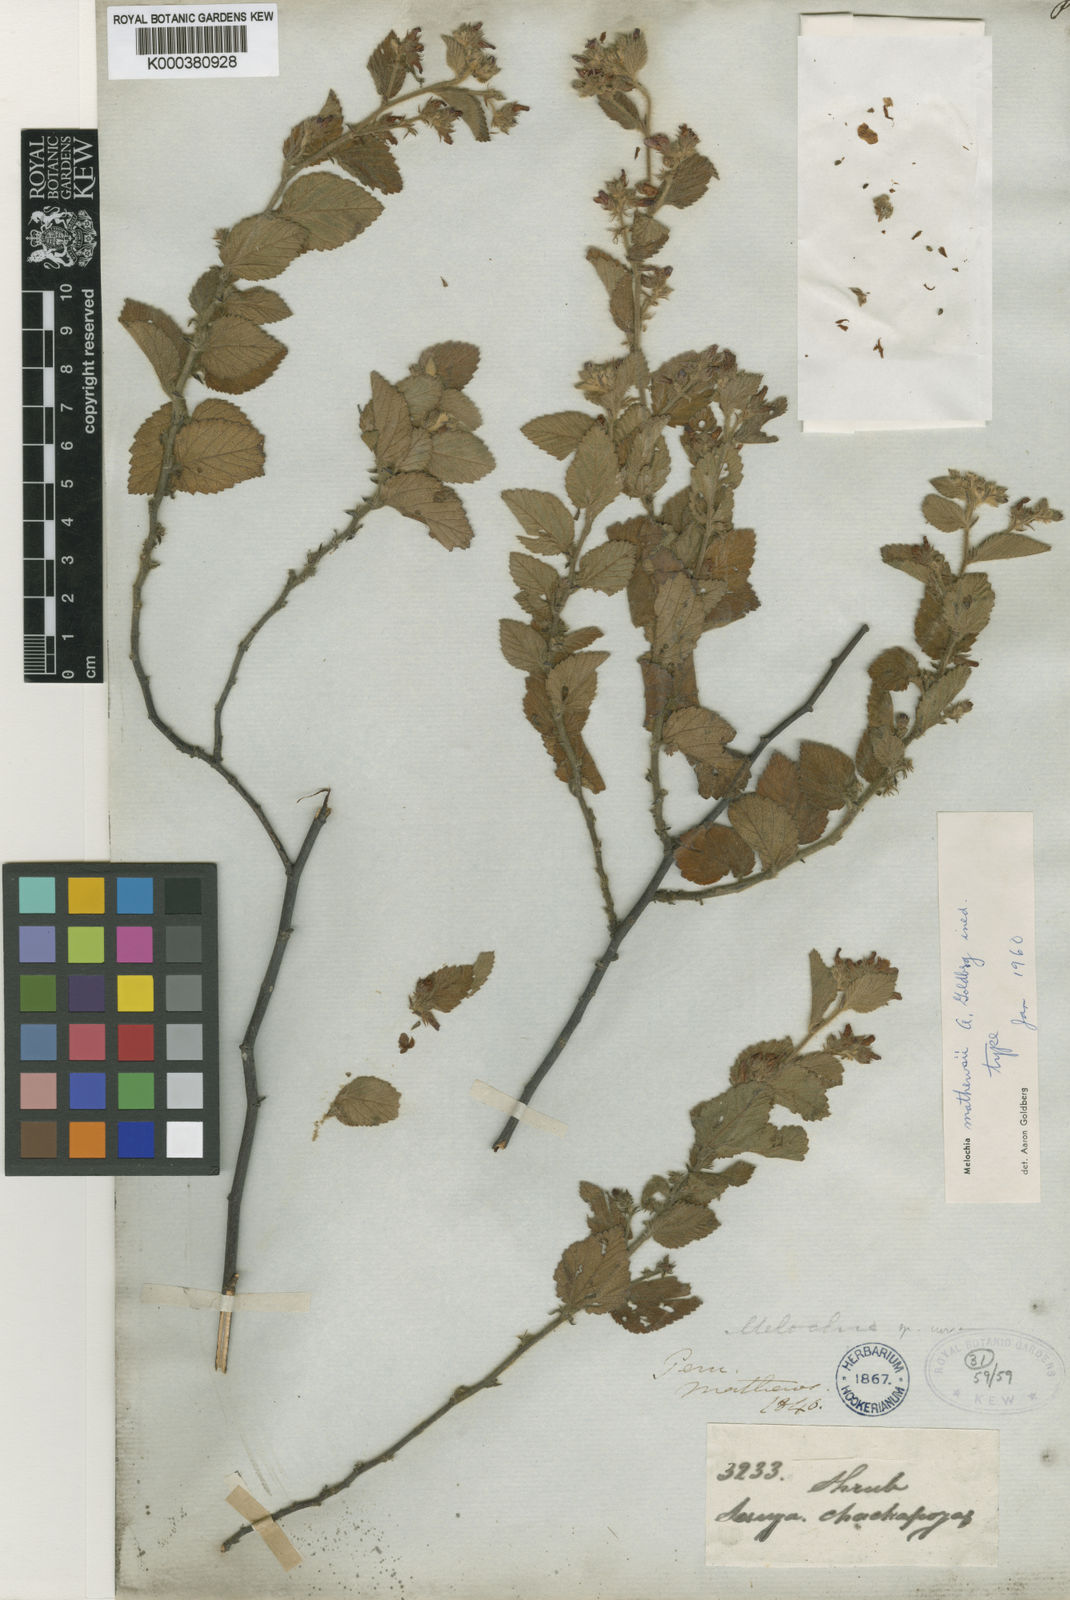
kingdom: Plantae
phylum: Tracheophyta
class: Magnoliopsida
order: Malvales
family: Malvaceae
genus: Melochia
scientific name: Melochia
